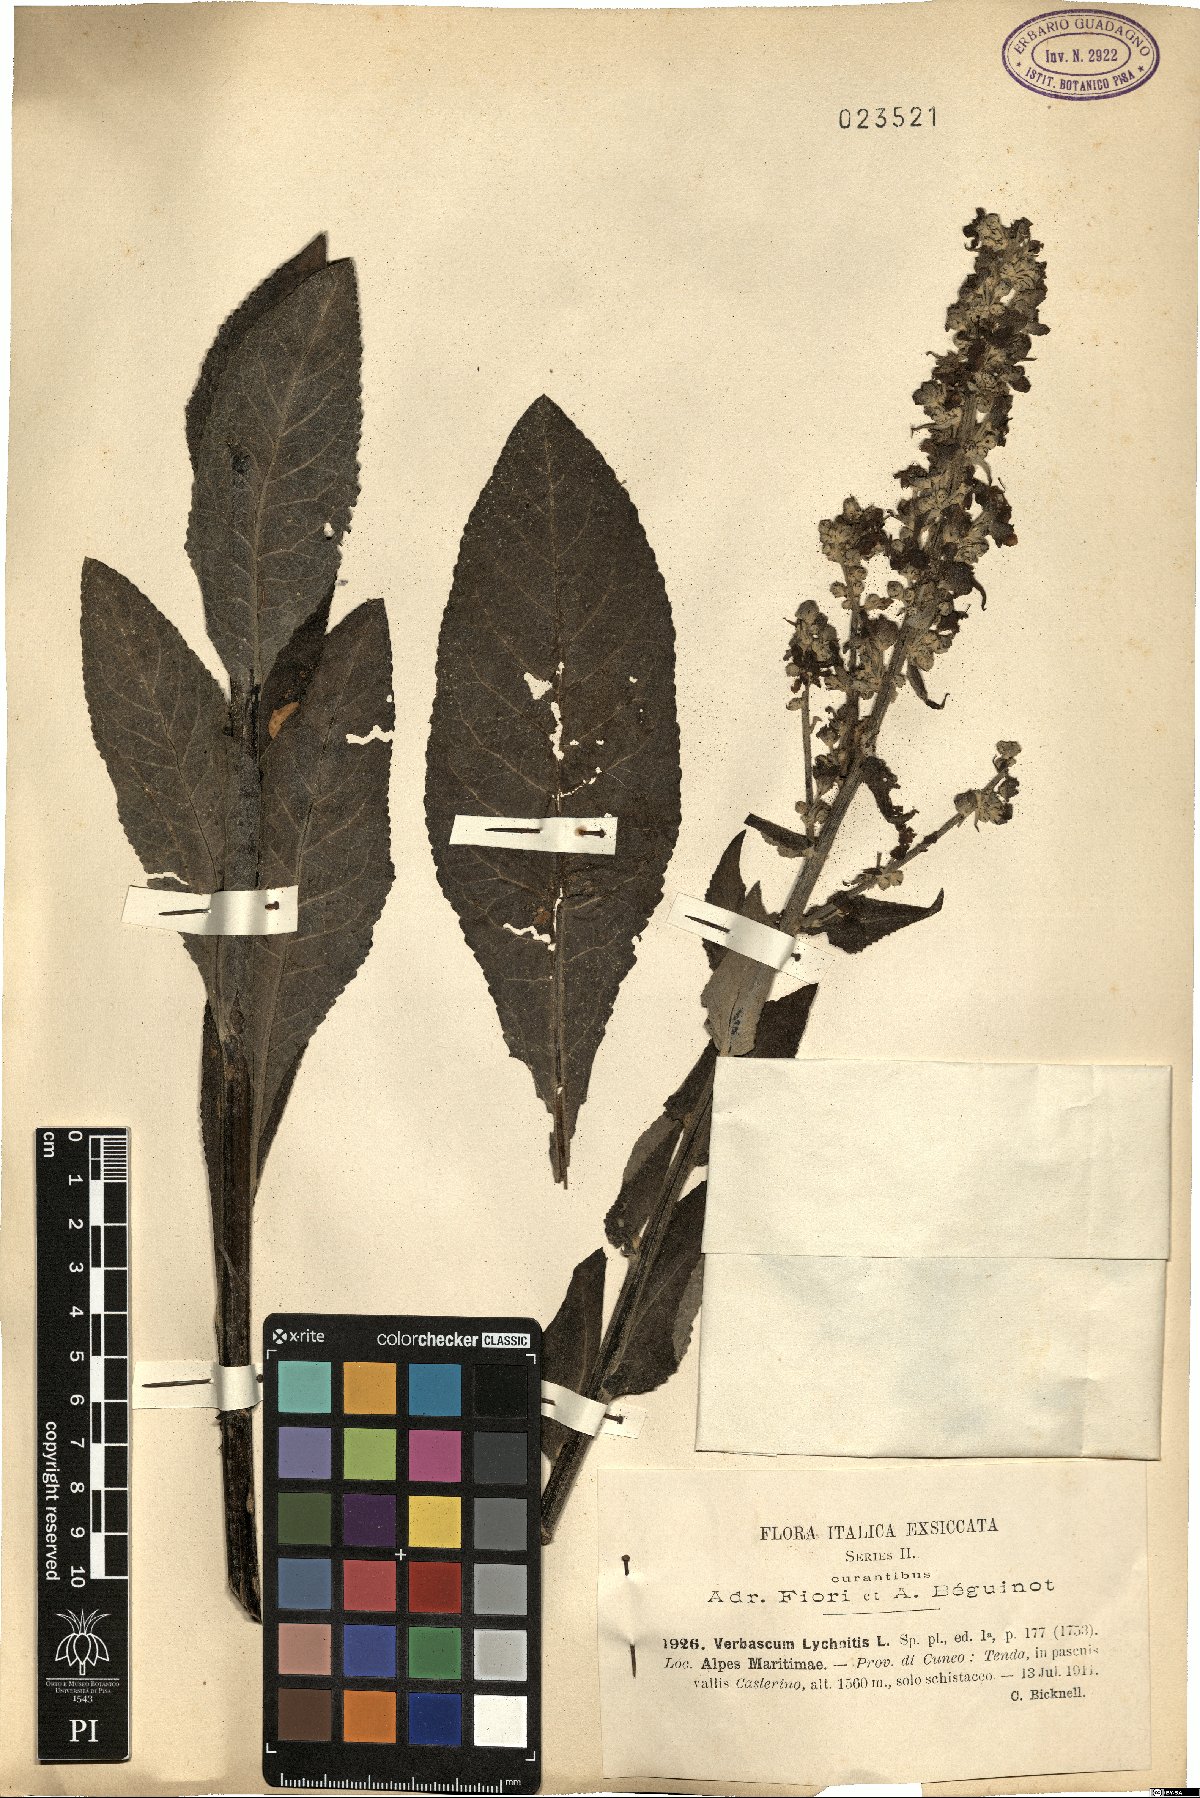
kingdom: Plantae
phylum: Tracheophyta
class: Magnoliopsida
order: Lamiales
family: Scrophulariaceae
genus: Verbascum
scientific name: Verbascum lychnitis
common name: White mullein
